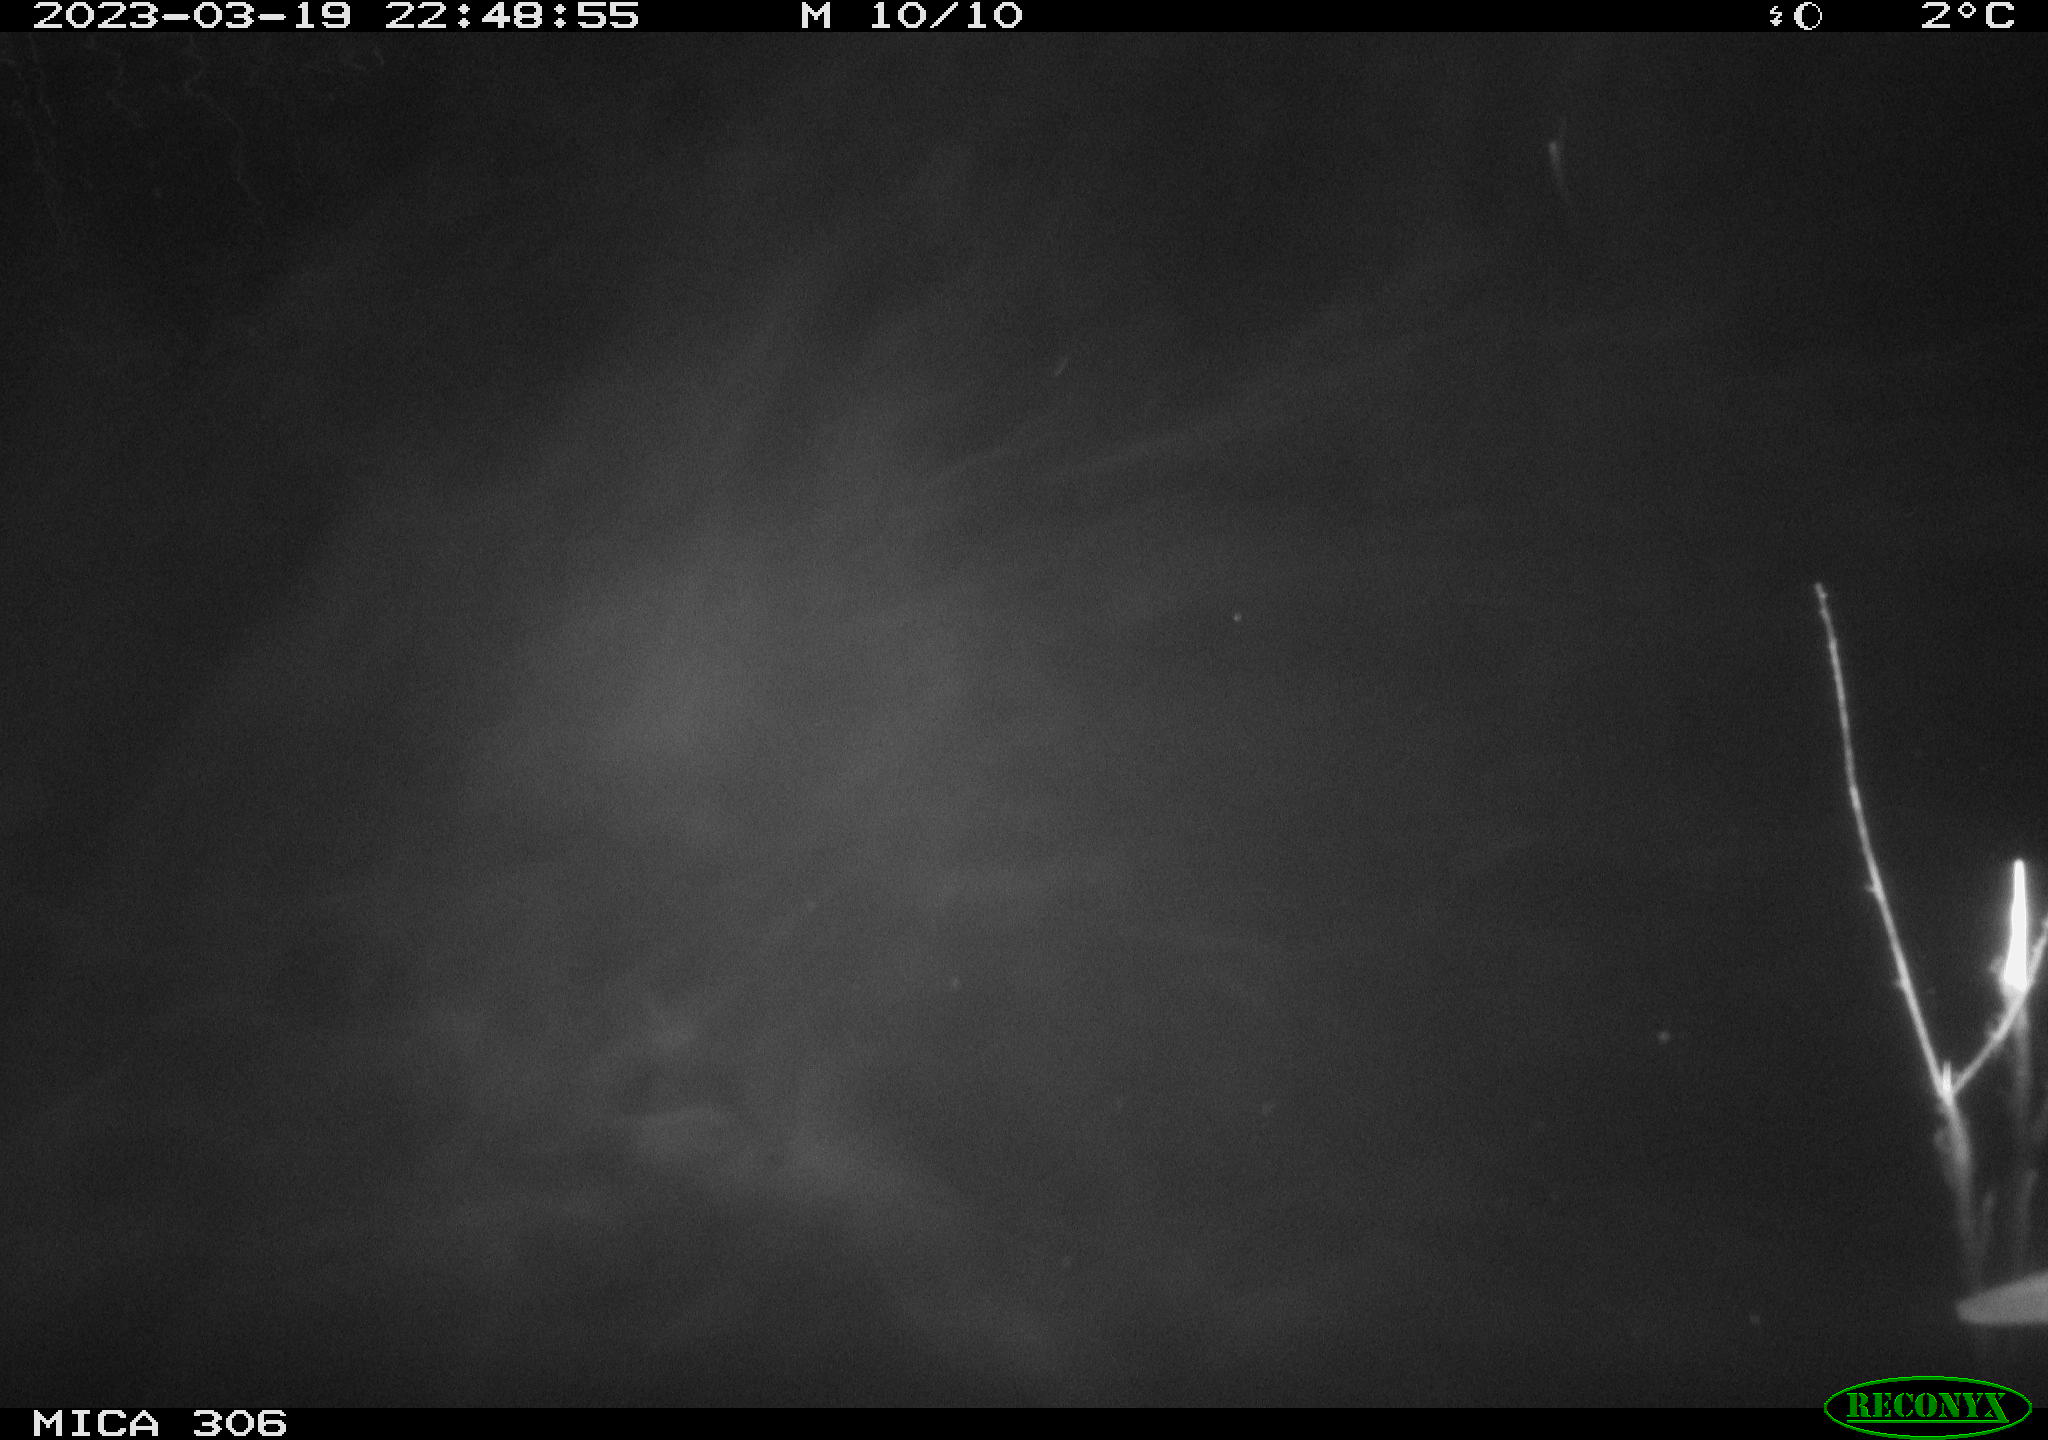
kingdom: Animalia
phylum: Chordata
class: Mammalia
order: Rodentia
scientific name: Rodentia
